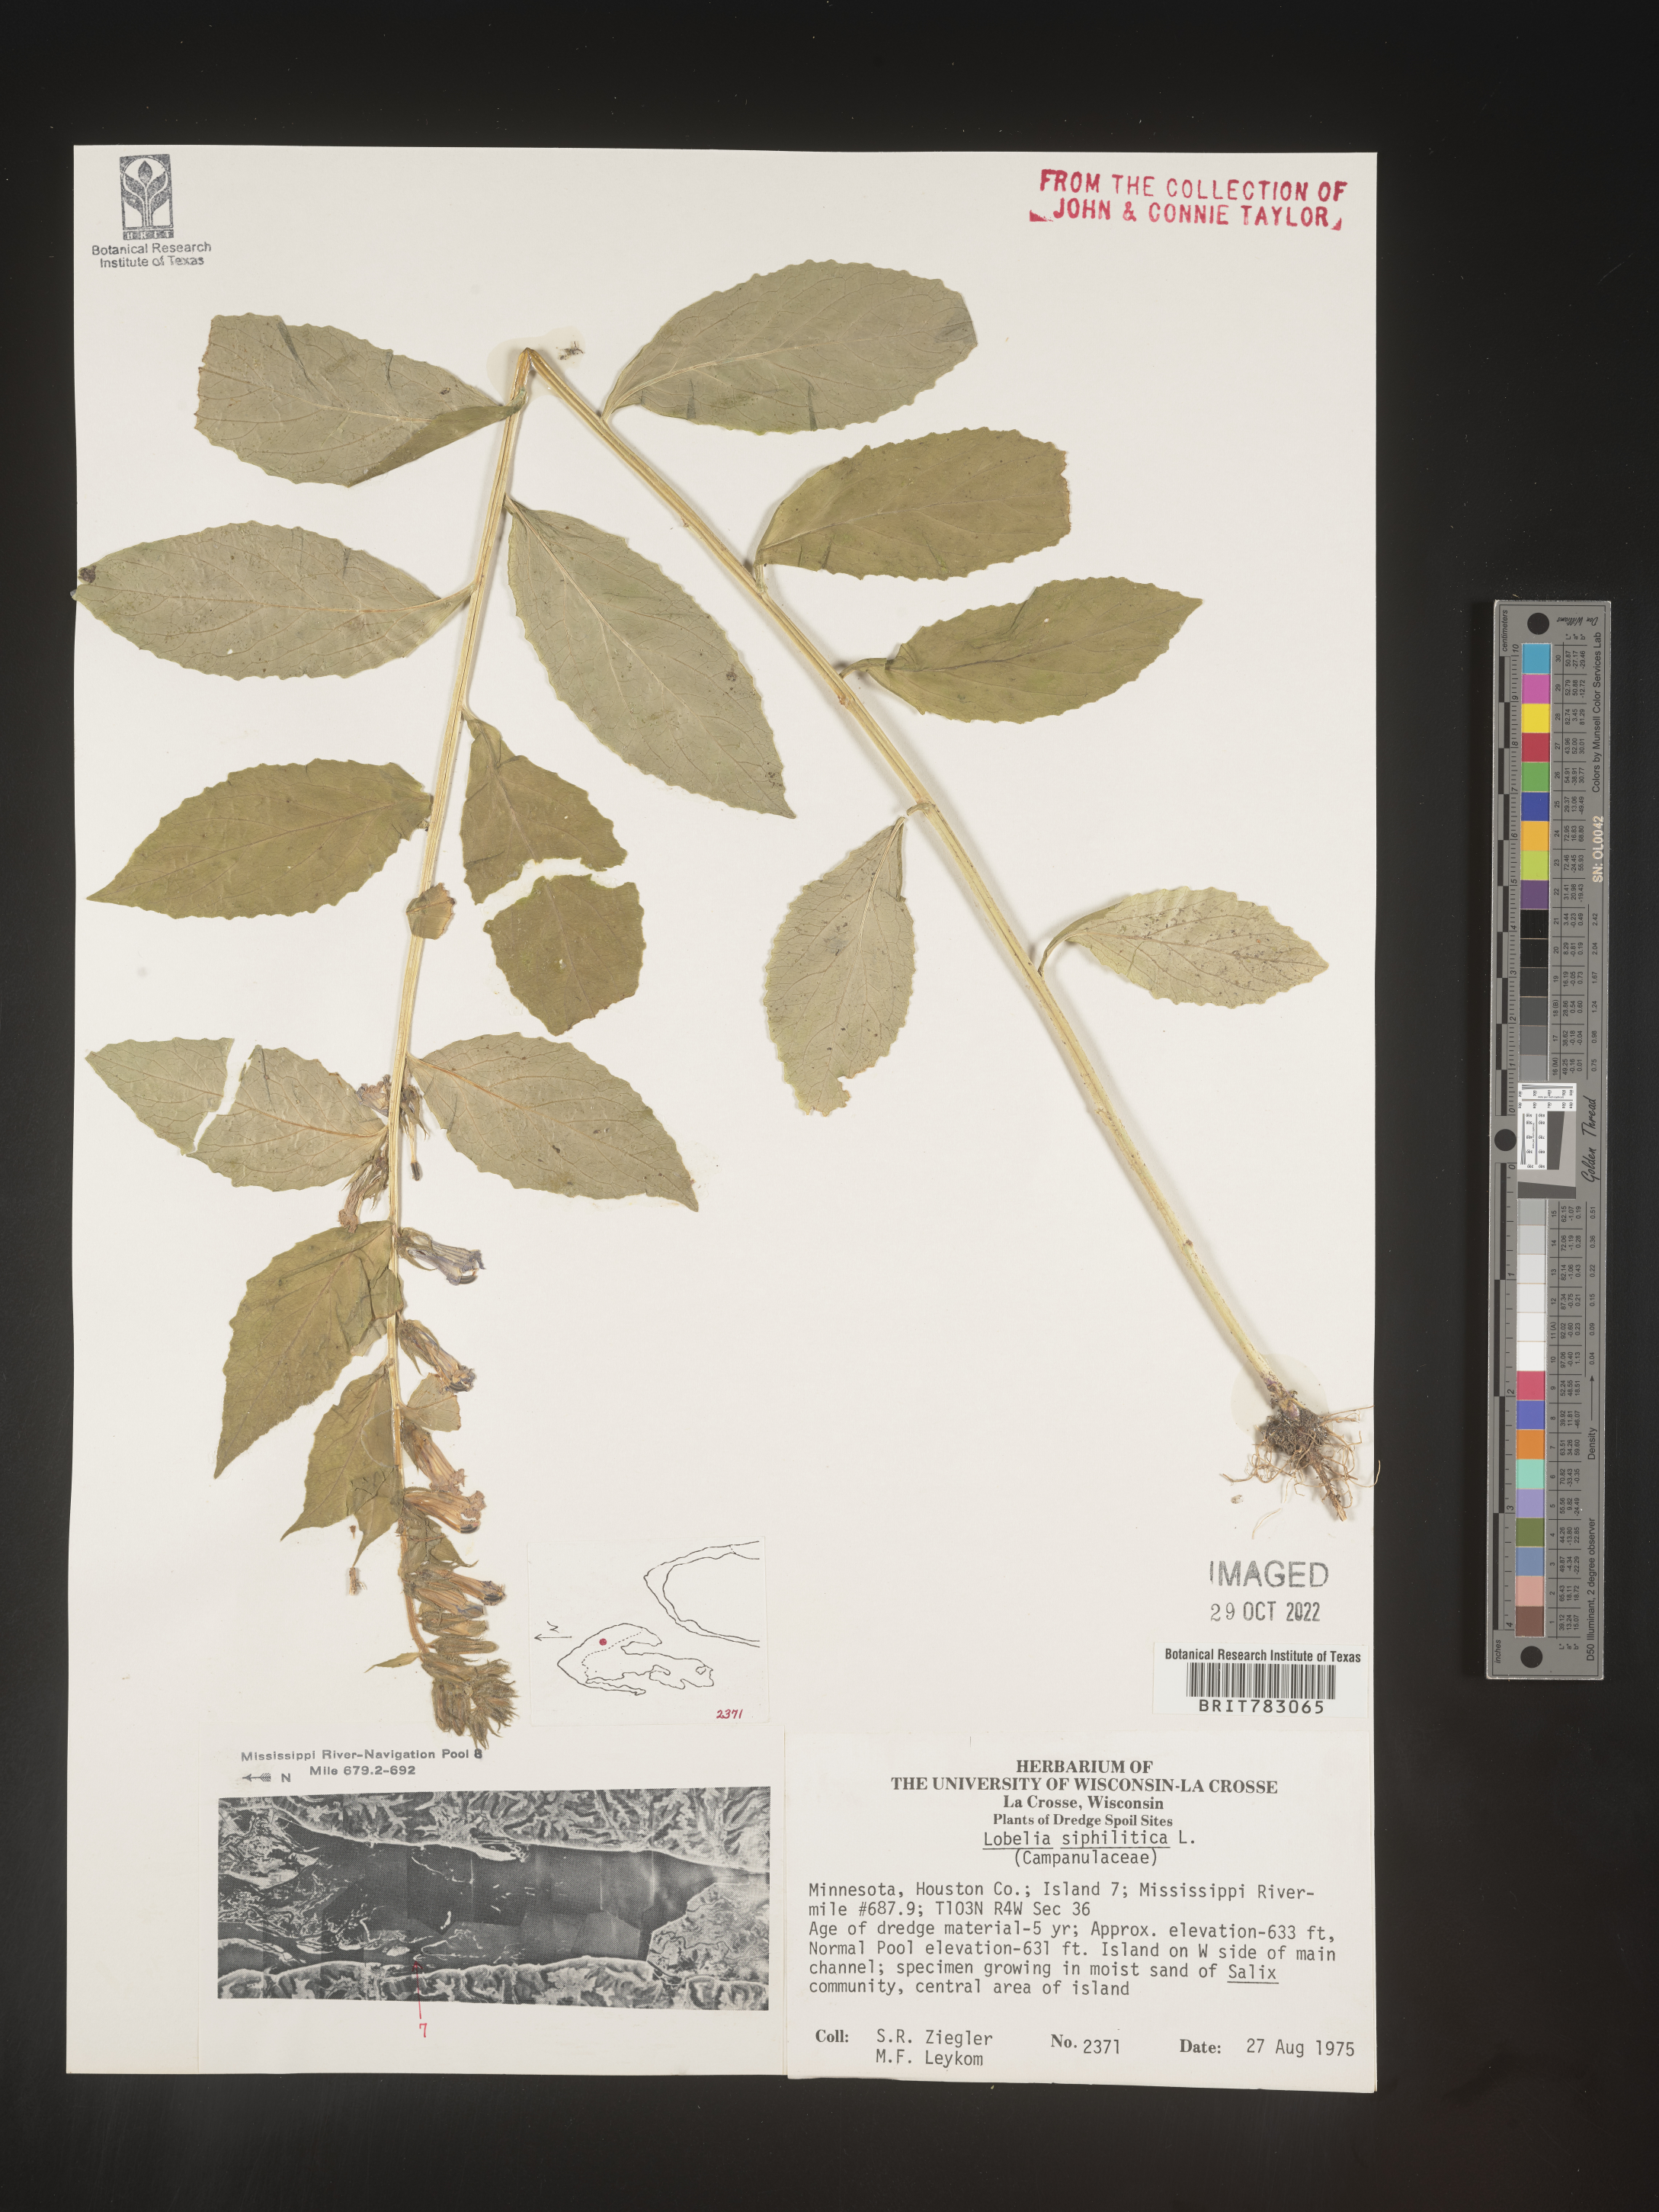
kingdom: Plantae
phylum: Tracheophyta
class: Magnoliopsida
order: Asterales
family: Campanulaceae
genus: Lobelia
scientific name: Lobelia siphilitica
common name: Great lobelia
